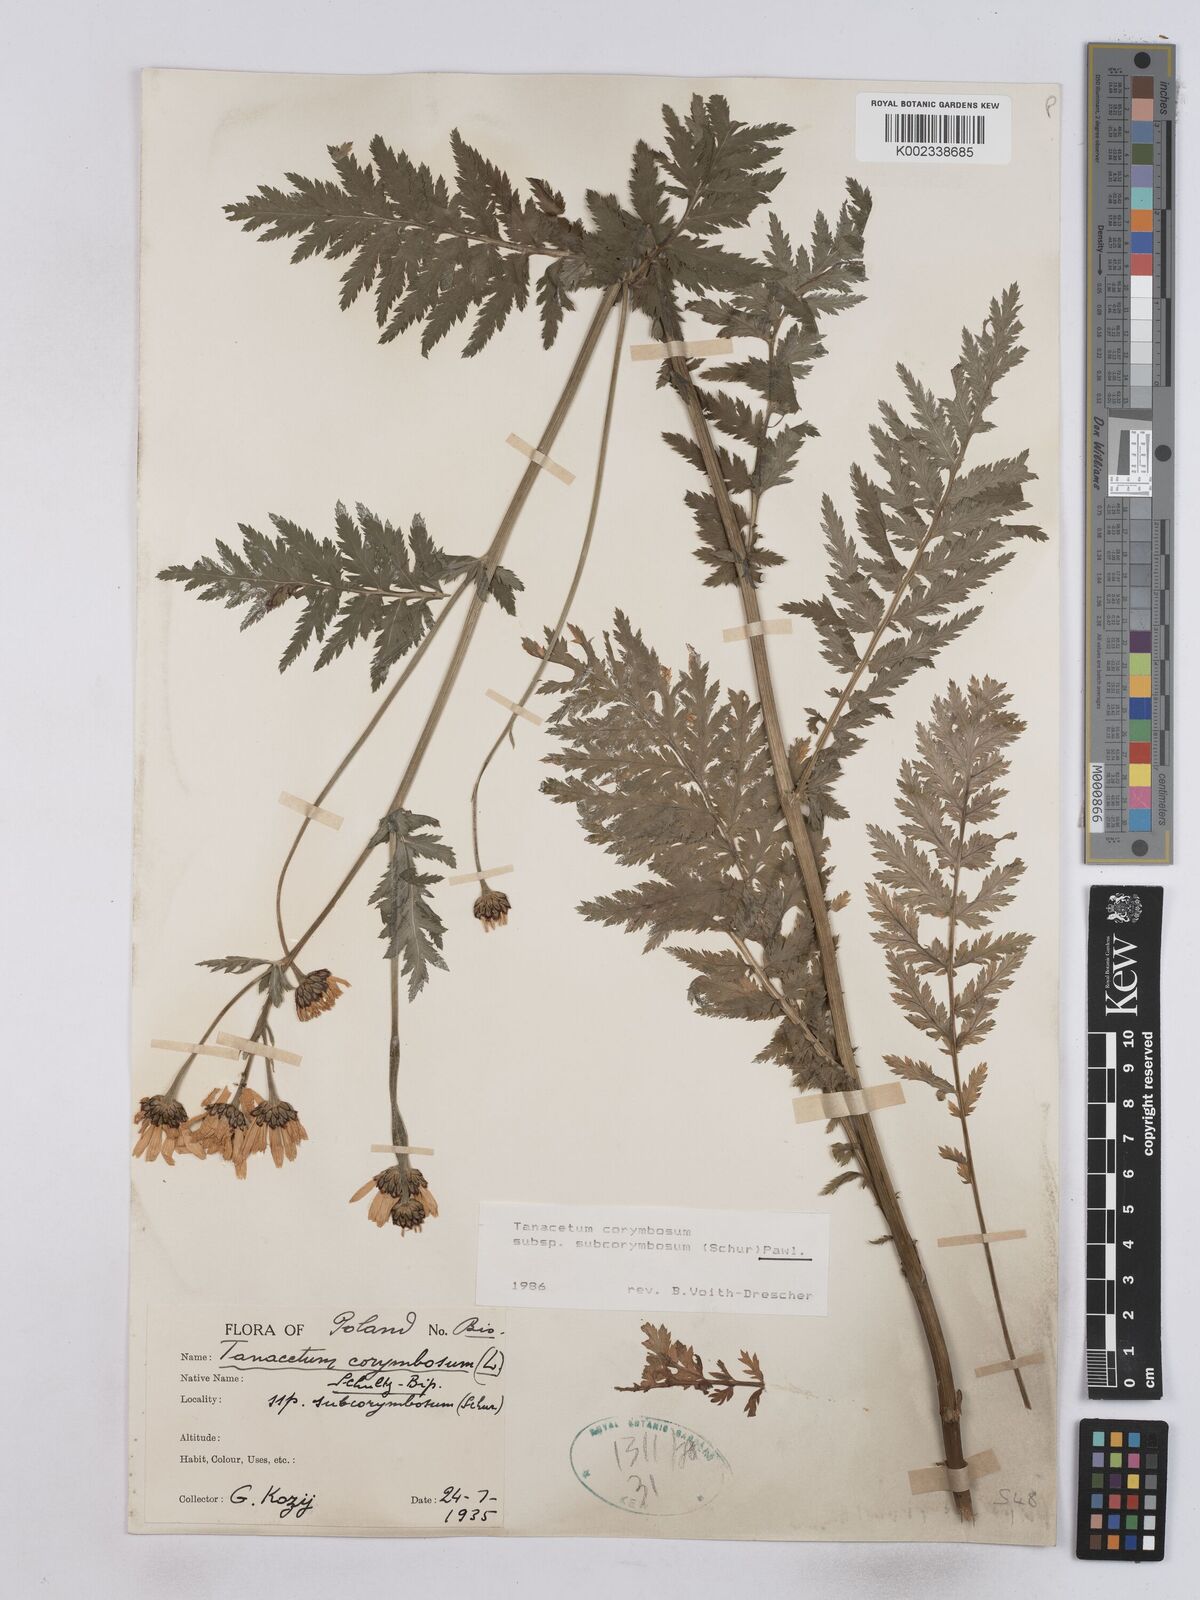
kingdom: Plantae
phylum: Tracheophyta
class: Magnoliopsida
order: Asterales
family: Asteraceae
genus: Tanacetum
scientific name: Tanacetum corymbosum
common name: Scentless feverfew
